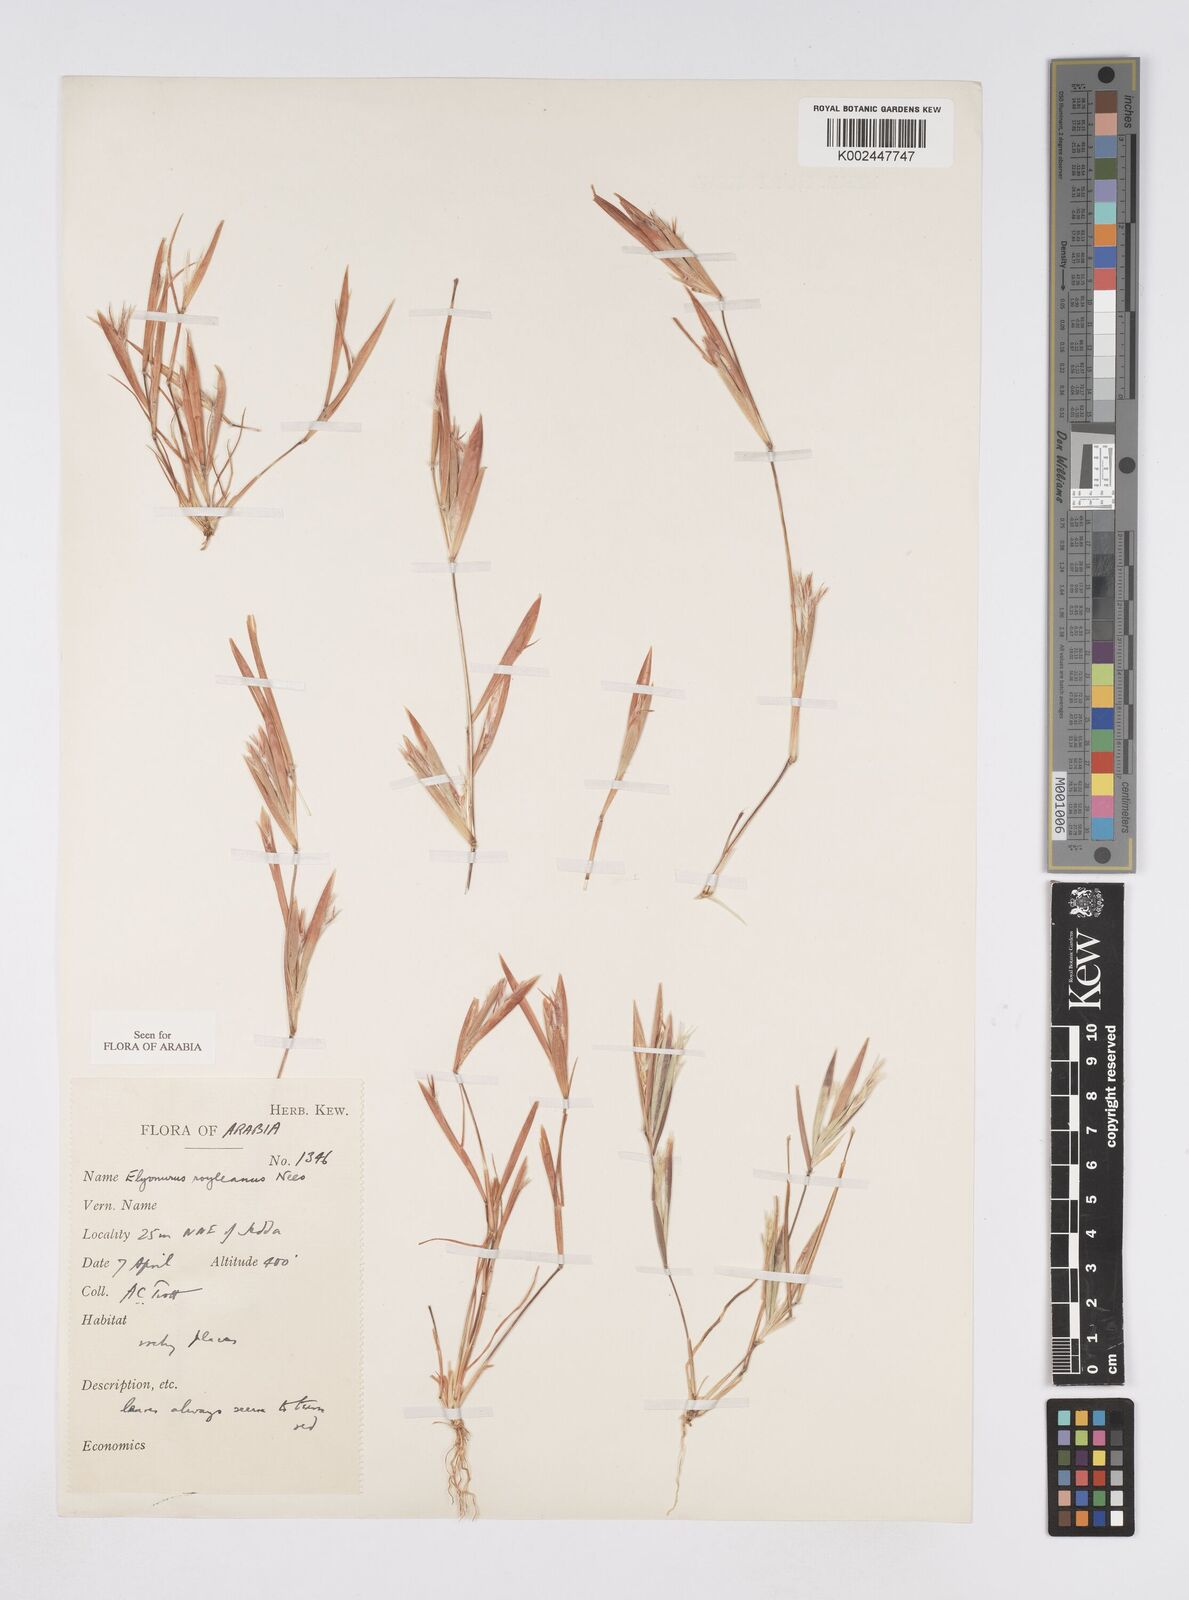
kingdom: Plantae
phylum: Tracheophyta
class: Liliopsida
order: Poales
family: Poaceae
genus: Elionurus
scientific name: Elionurus royleanus
